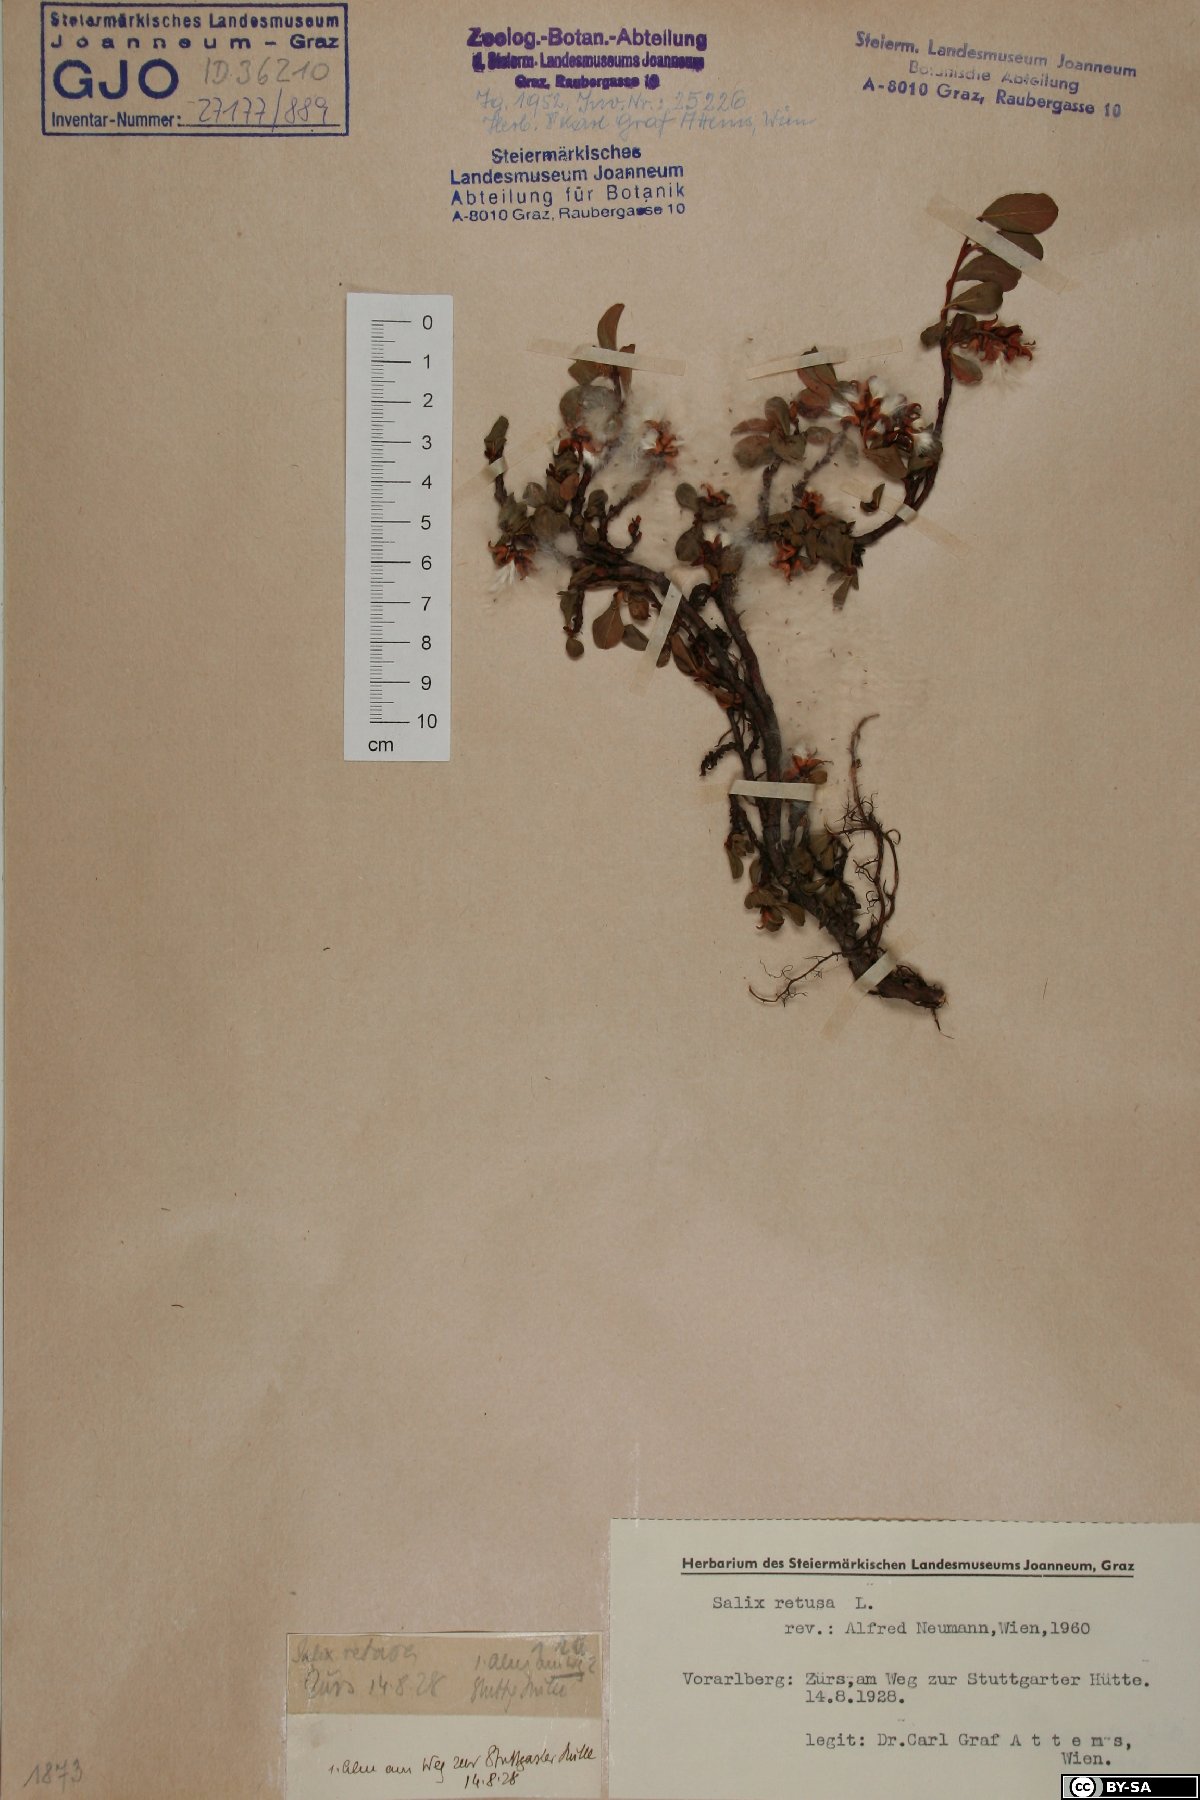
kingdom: Plantae
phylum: Tracheophyta
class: Magnoliopsida
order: Malpighiales
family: Salicaceae
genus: Salix
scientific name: Salix retusa
